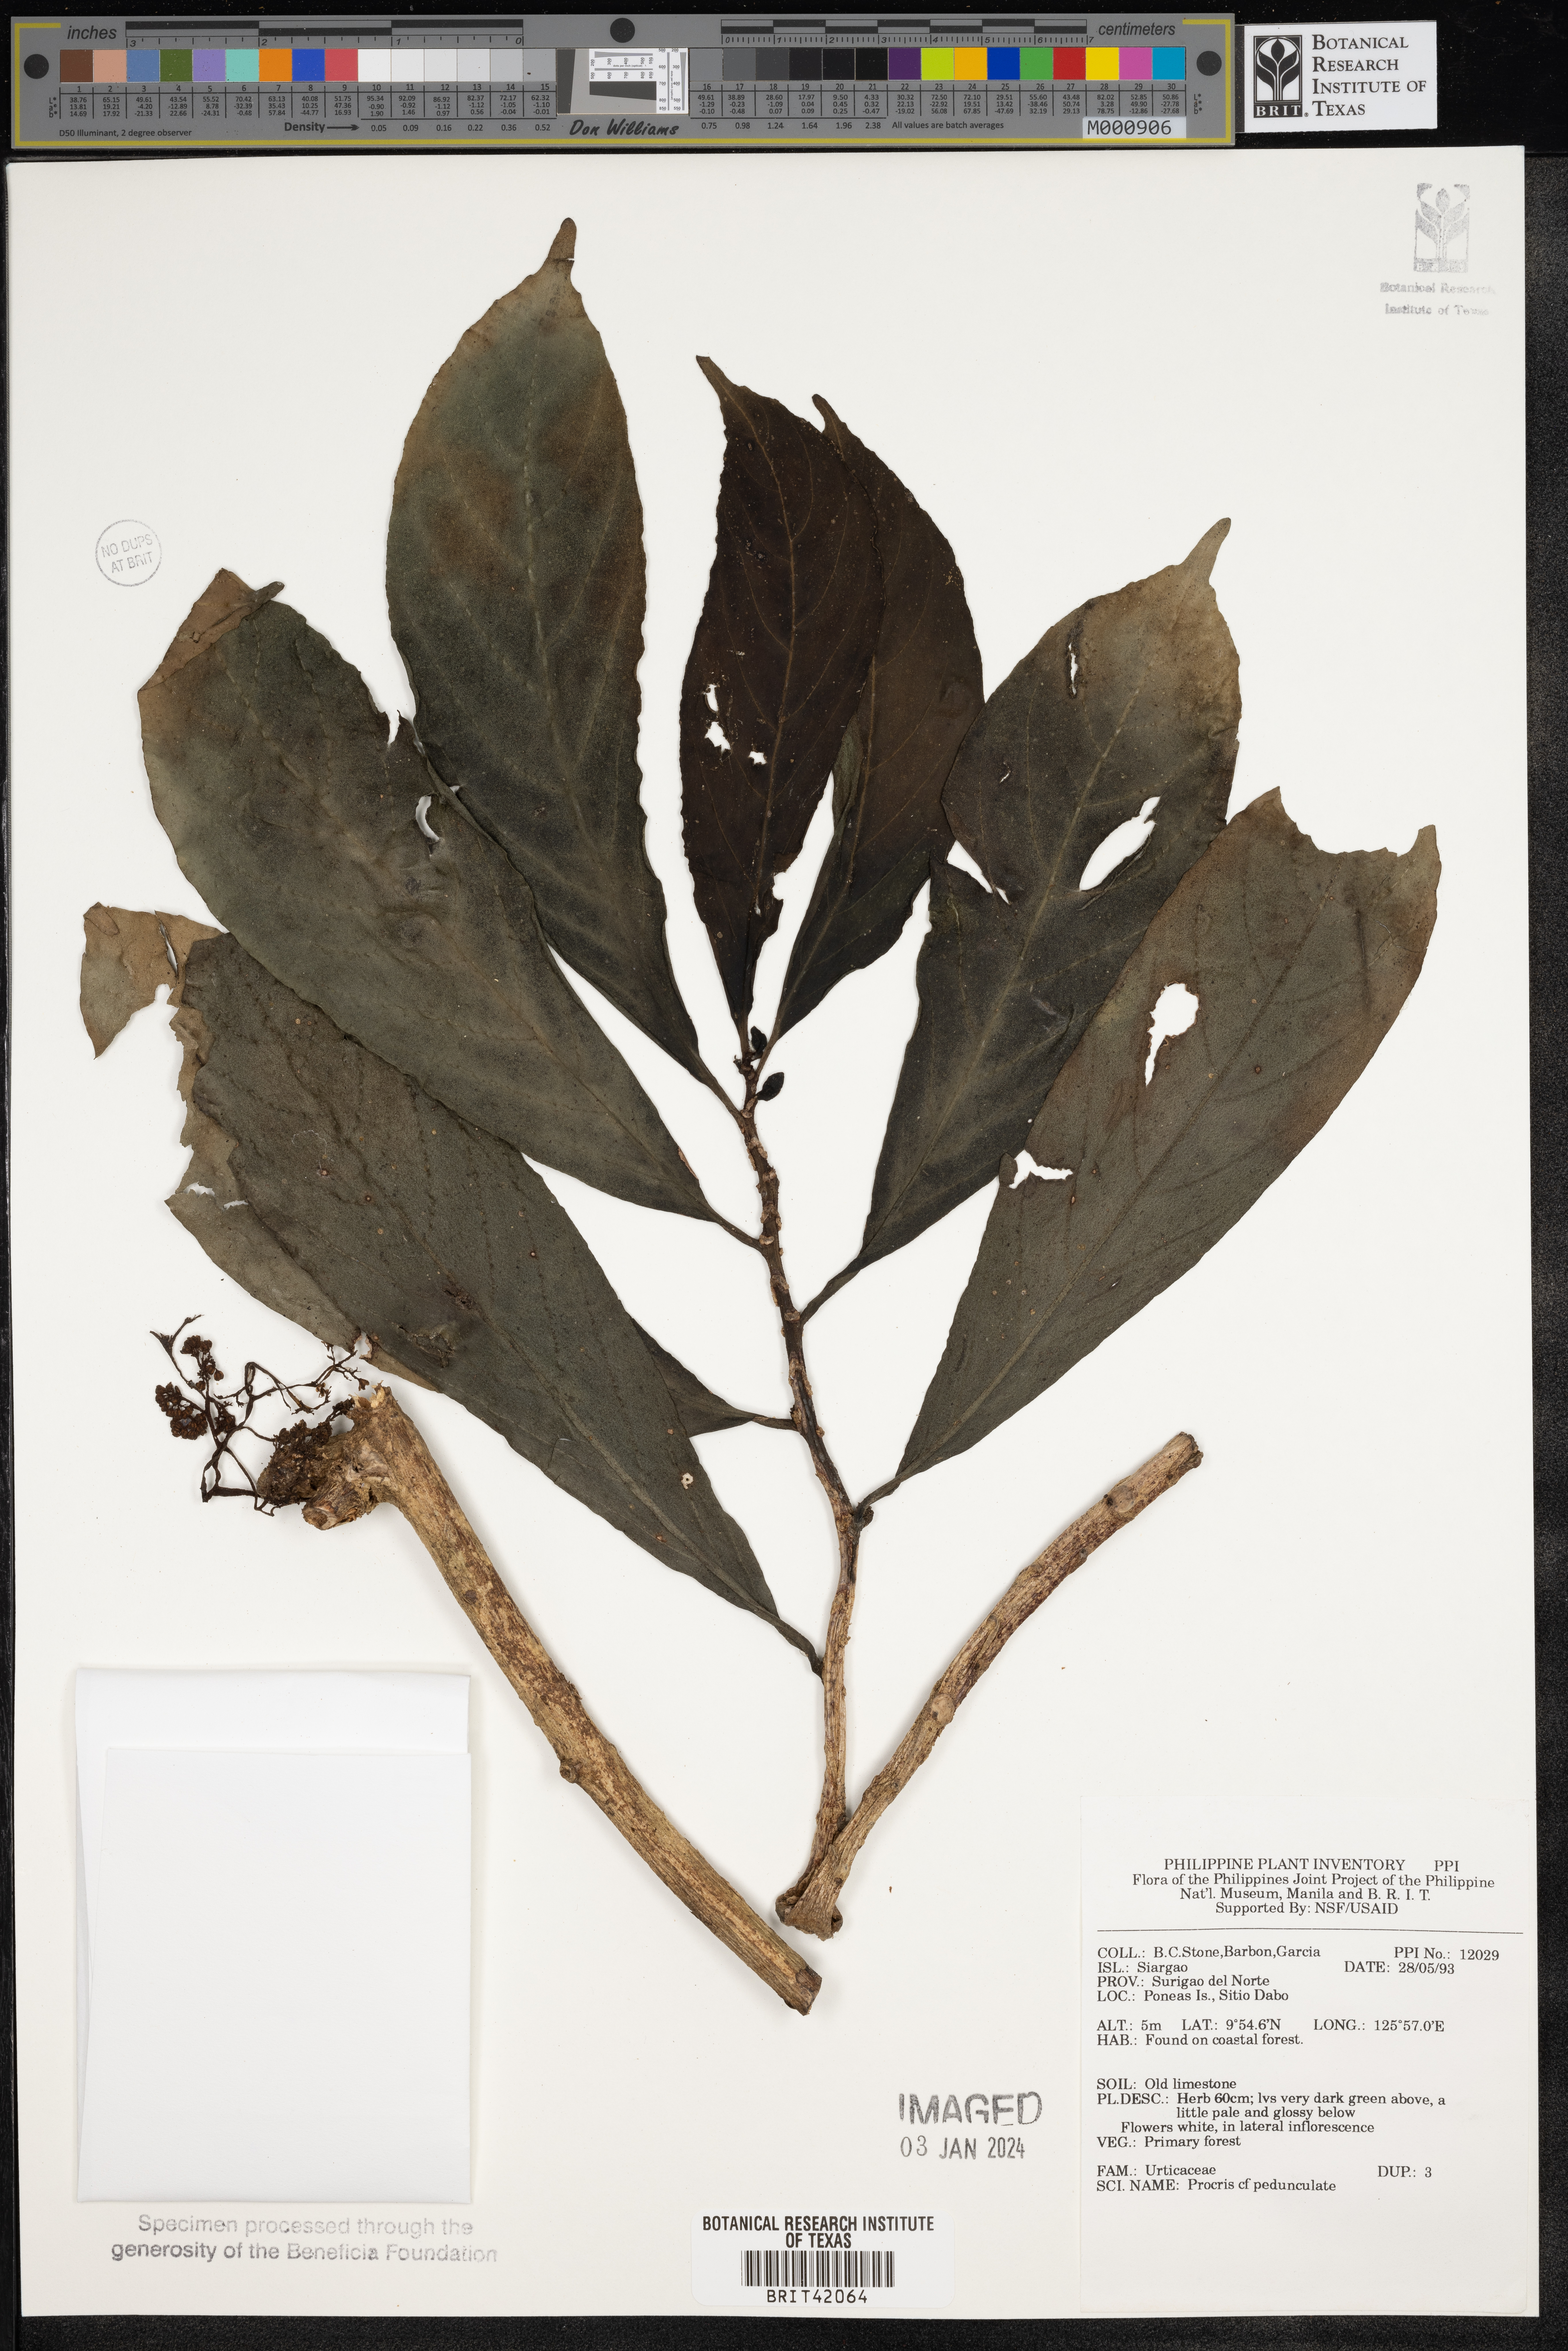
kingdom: Plantae
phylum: Tracheophyta
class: Magnoliopsida
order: Rosales
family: Urticaceae
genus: Procris
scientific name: Procris pedunculata
